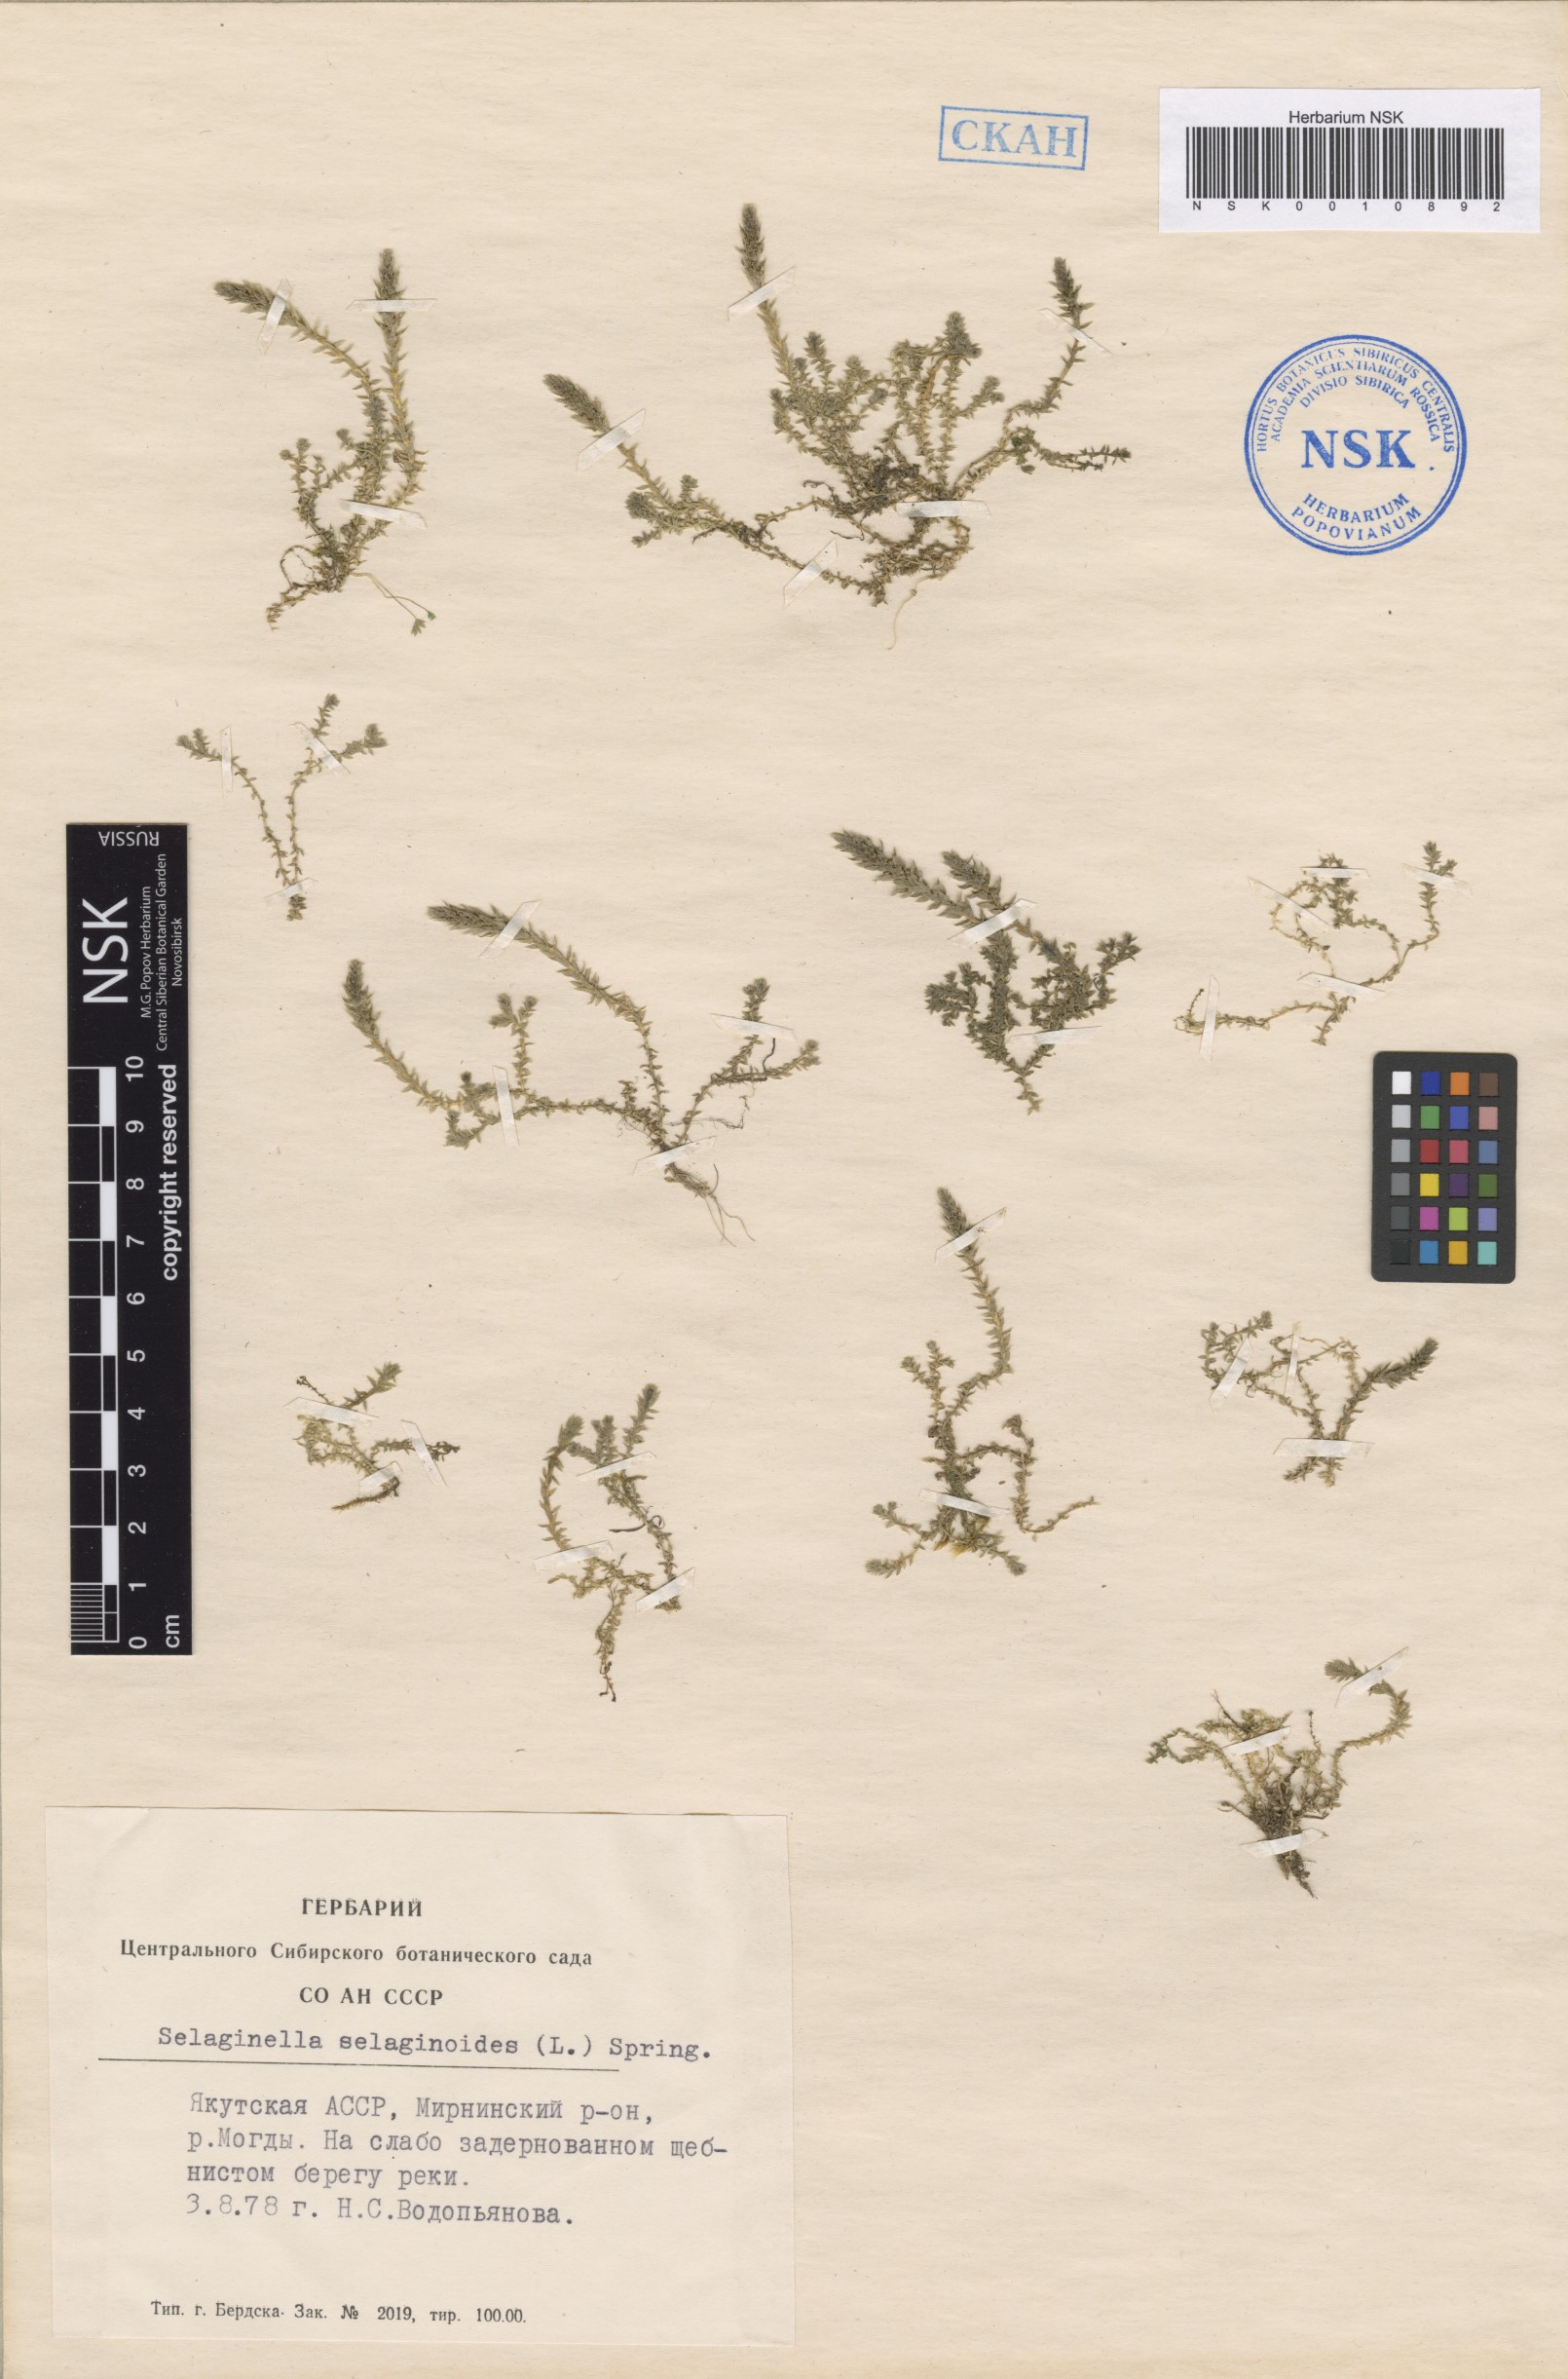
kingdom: Plantae
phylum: Tracheophyta
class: Lycopodiopsida
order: Selaginellales
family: Selaginellaceae
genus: Selaginella
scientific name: Selaginella selaginoides
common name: Prickly mountain-moss
